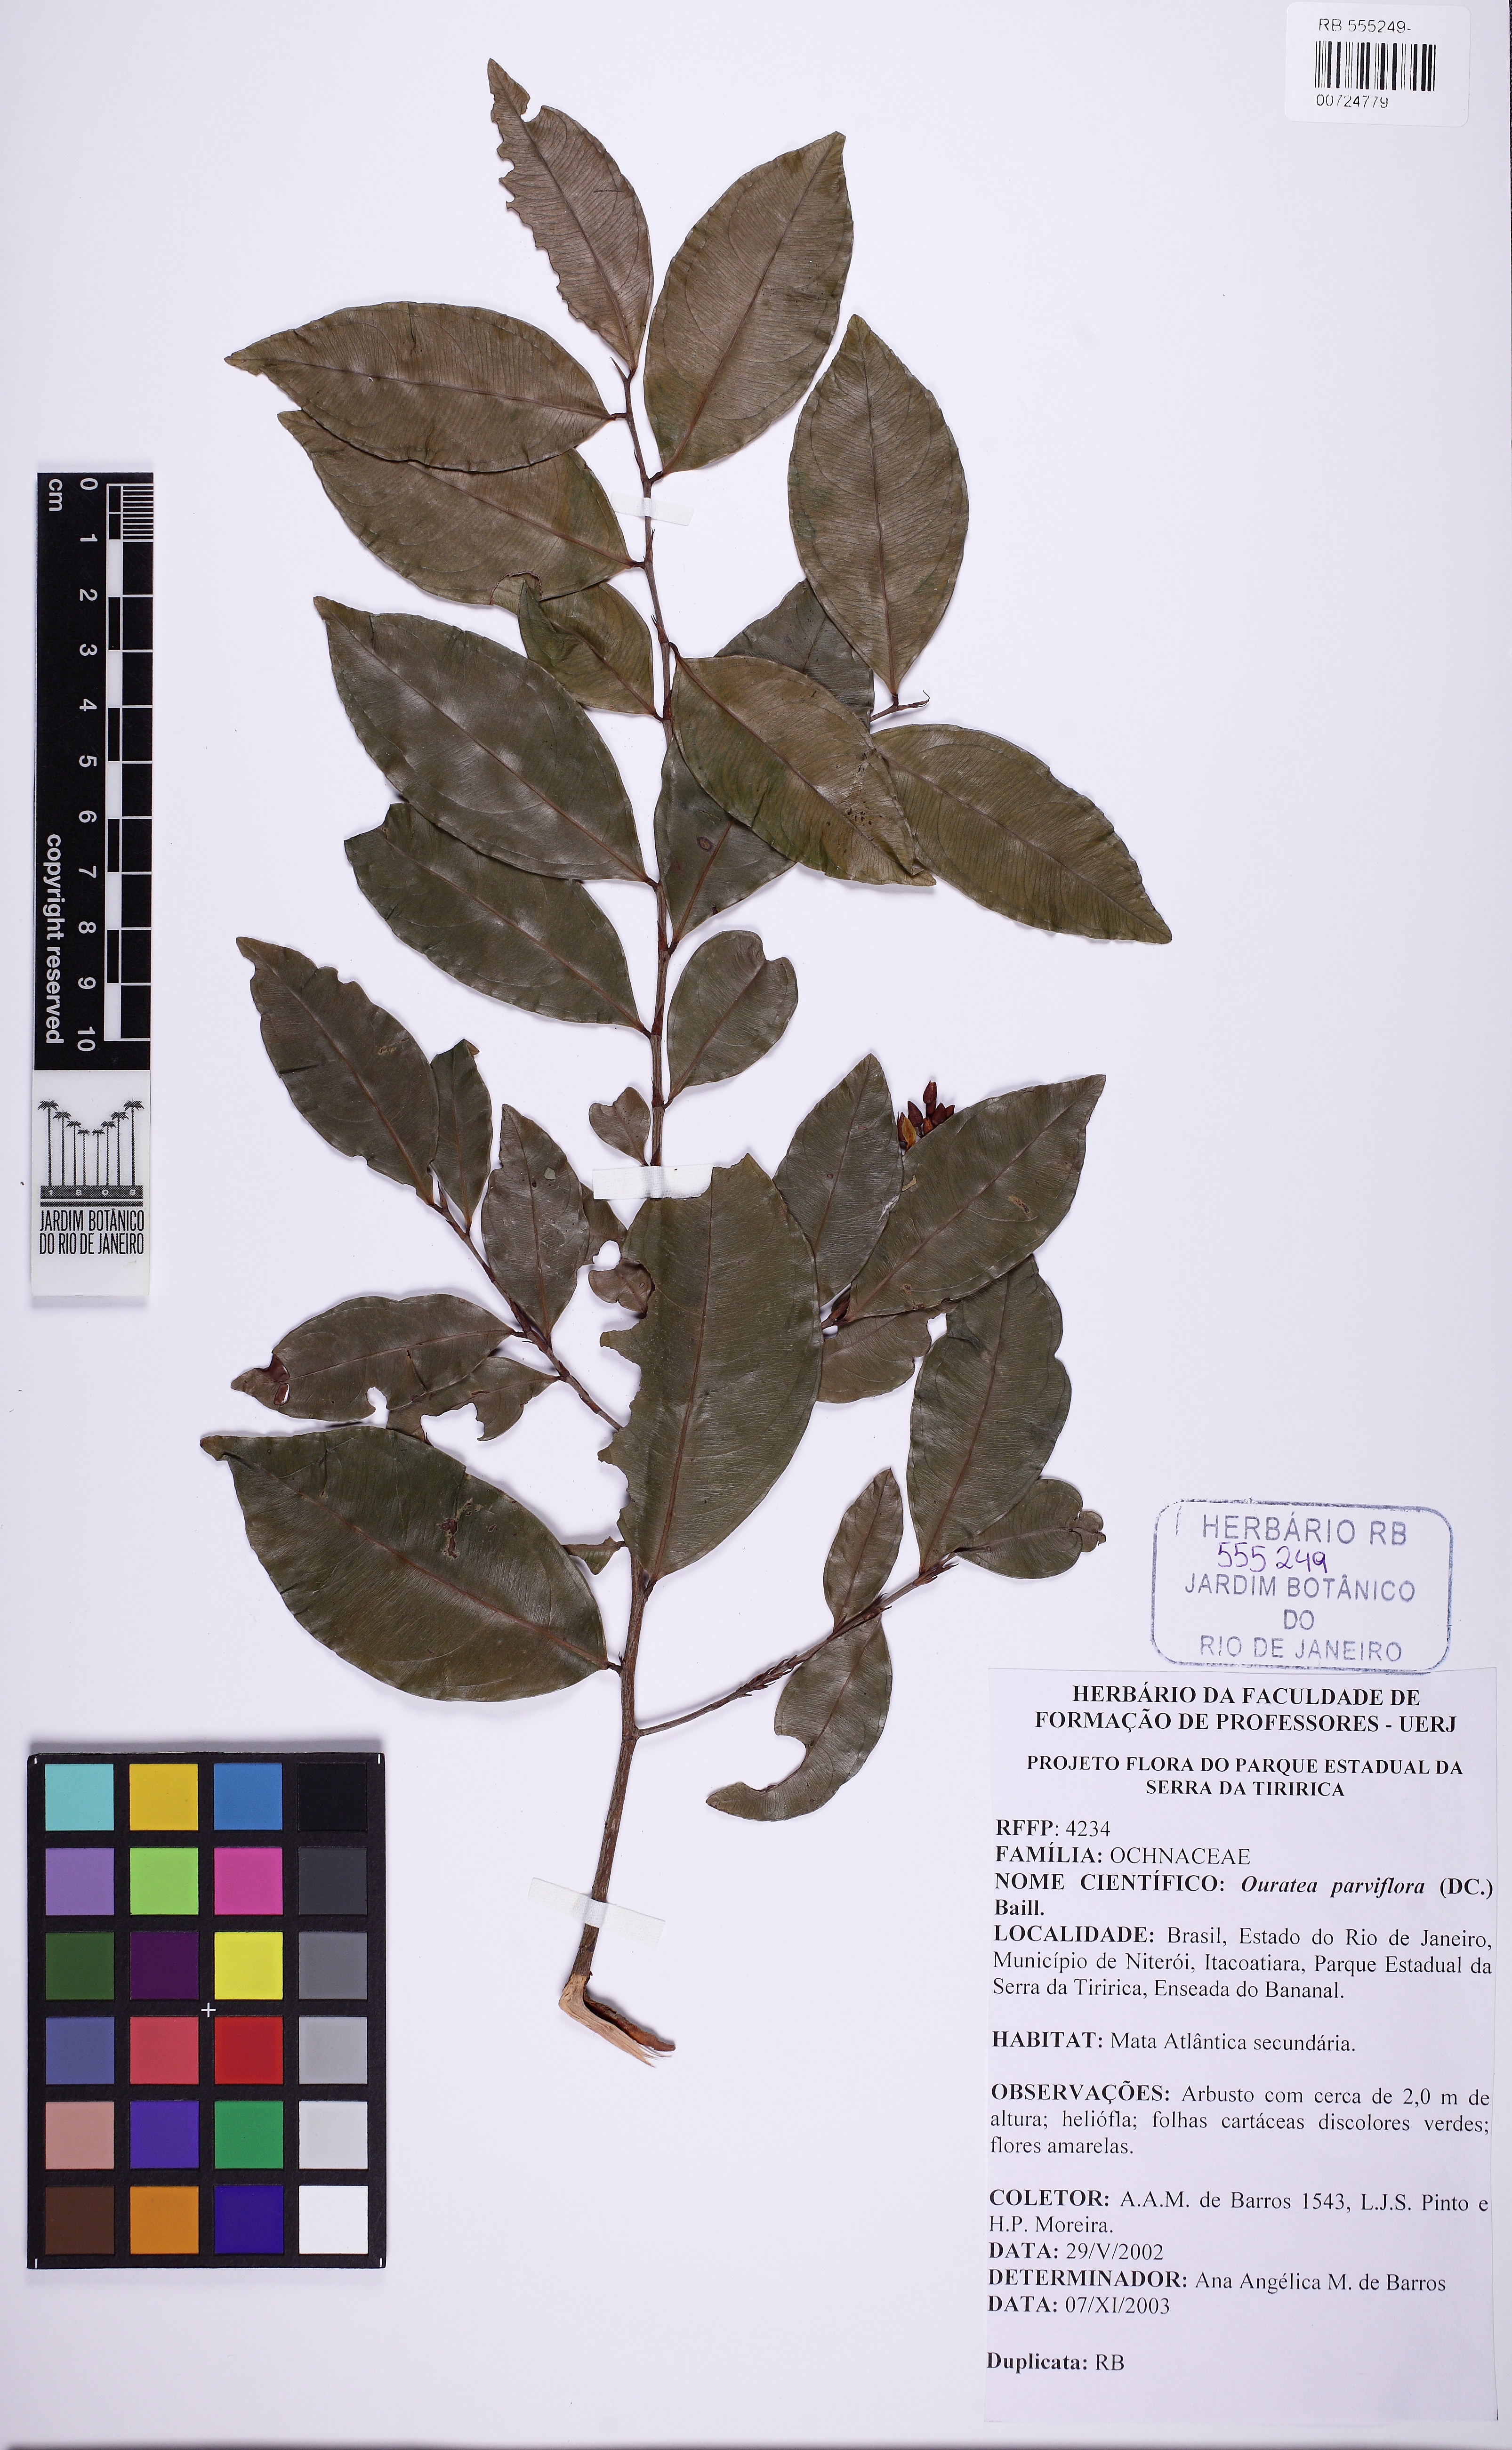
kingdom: Plantae
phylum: Tracheophyta
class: Magnoliopsida
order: Malpighiales
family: Ochnaceae
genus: Ouratea
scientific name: Ouratea parviflora
